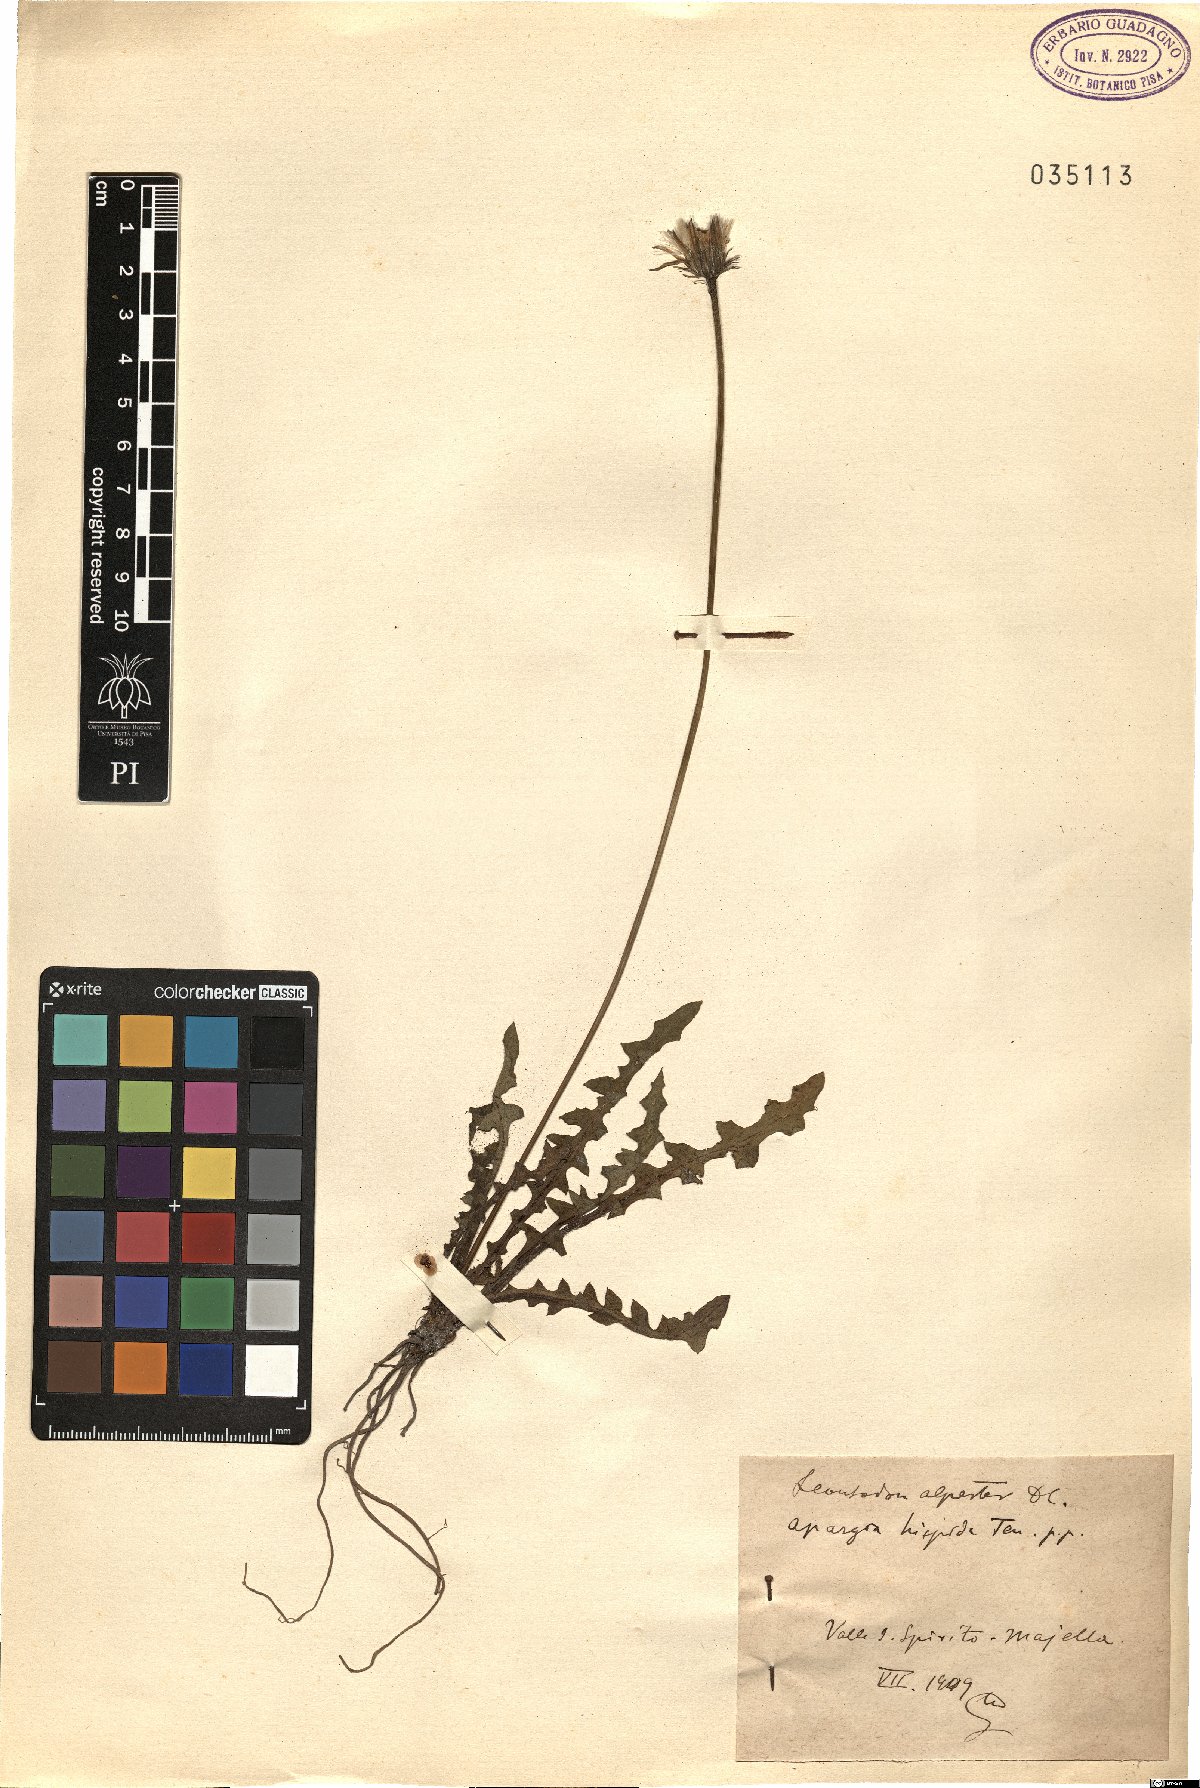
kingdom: Plantae
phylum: Tracheophyta
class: Magnoliopsida
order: Asterales
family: Asteraceae
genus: Taraxacum
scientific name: Taraxacum alpestre
